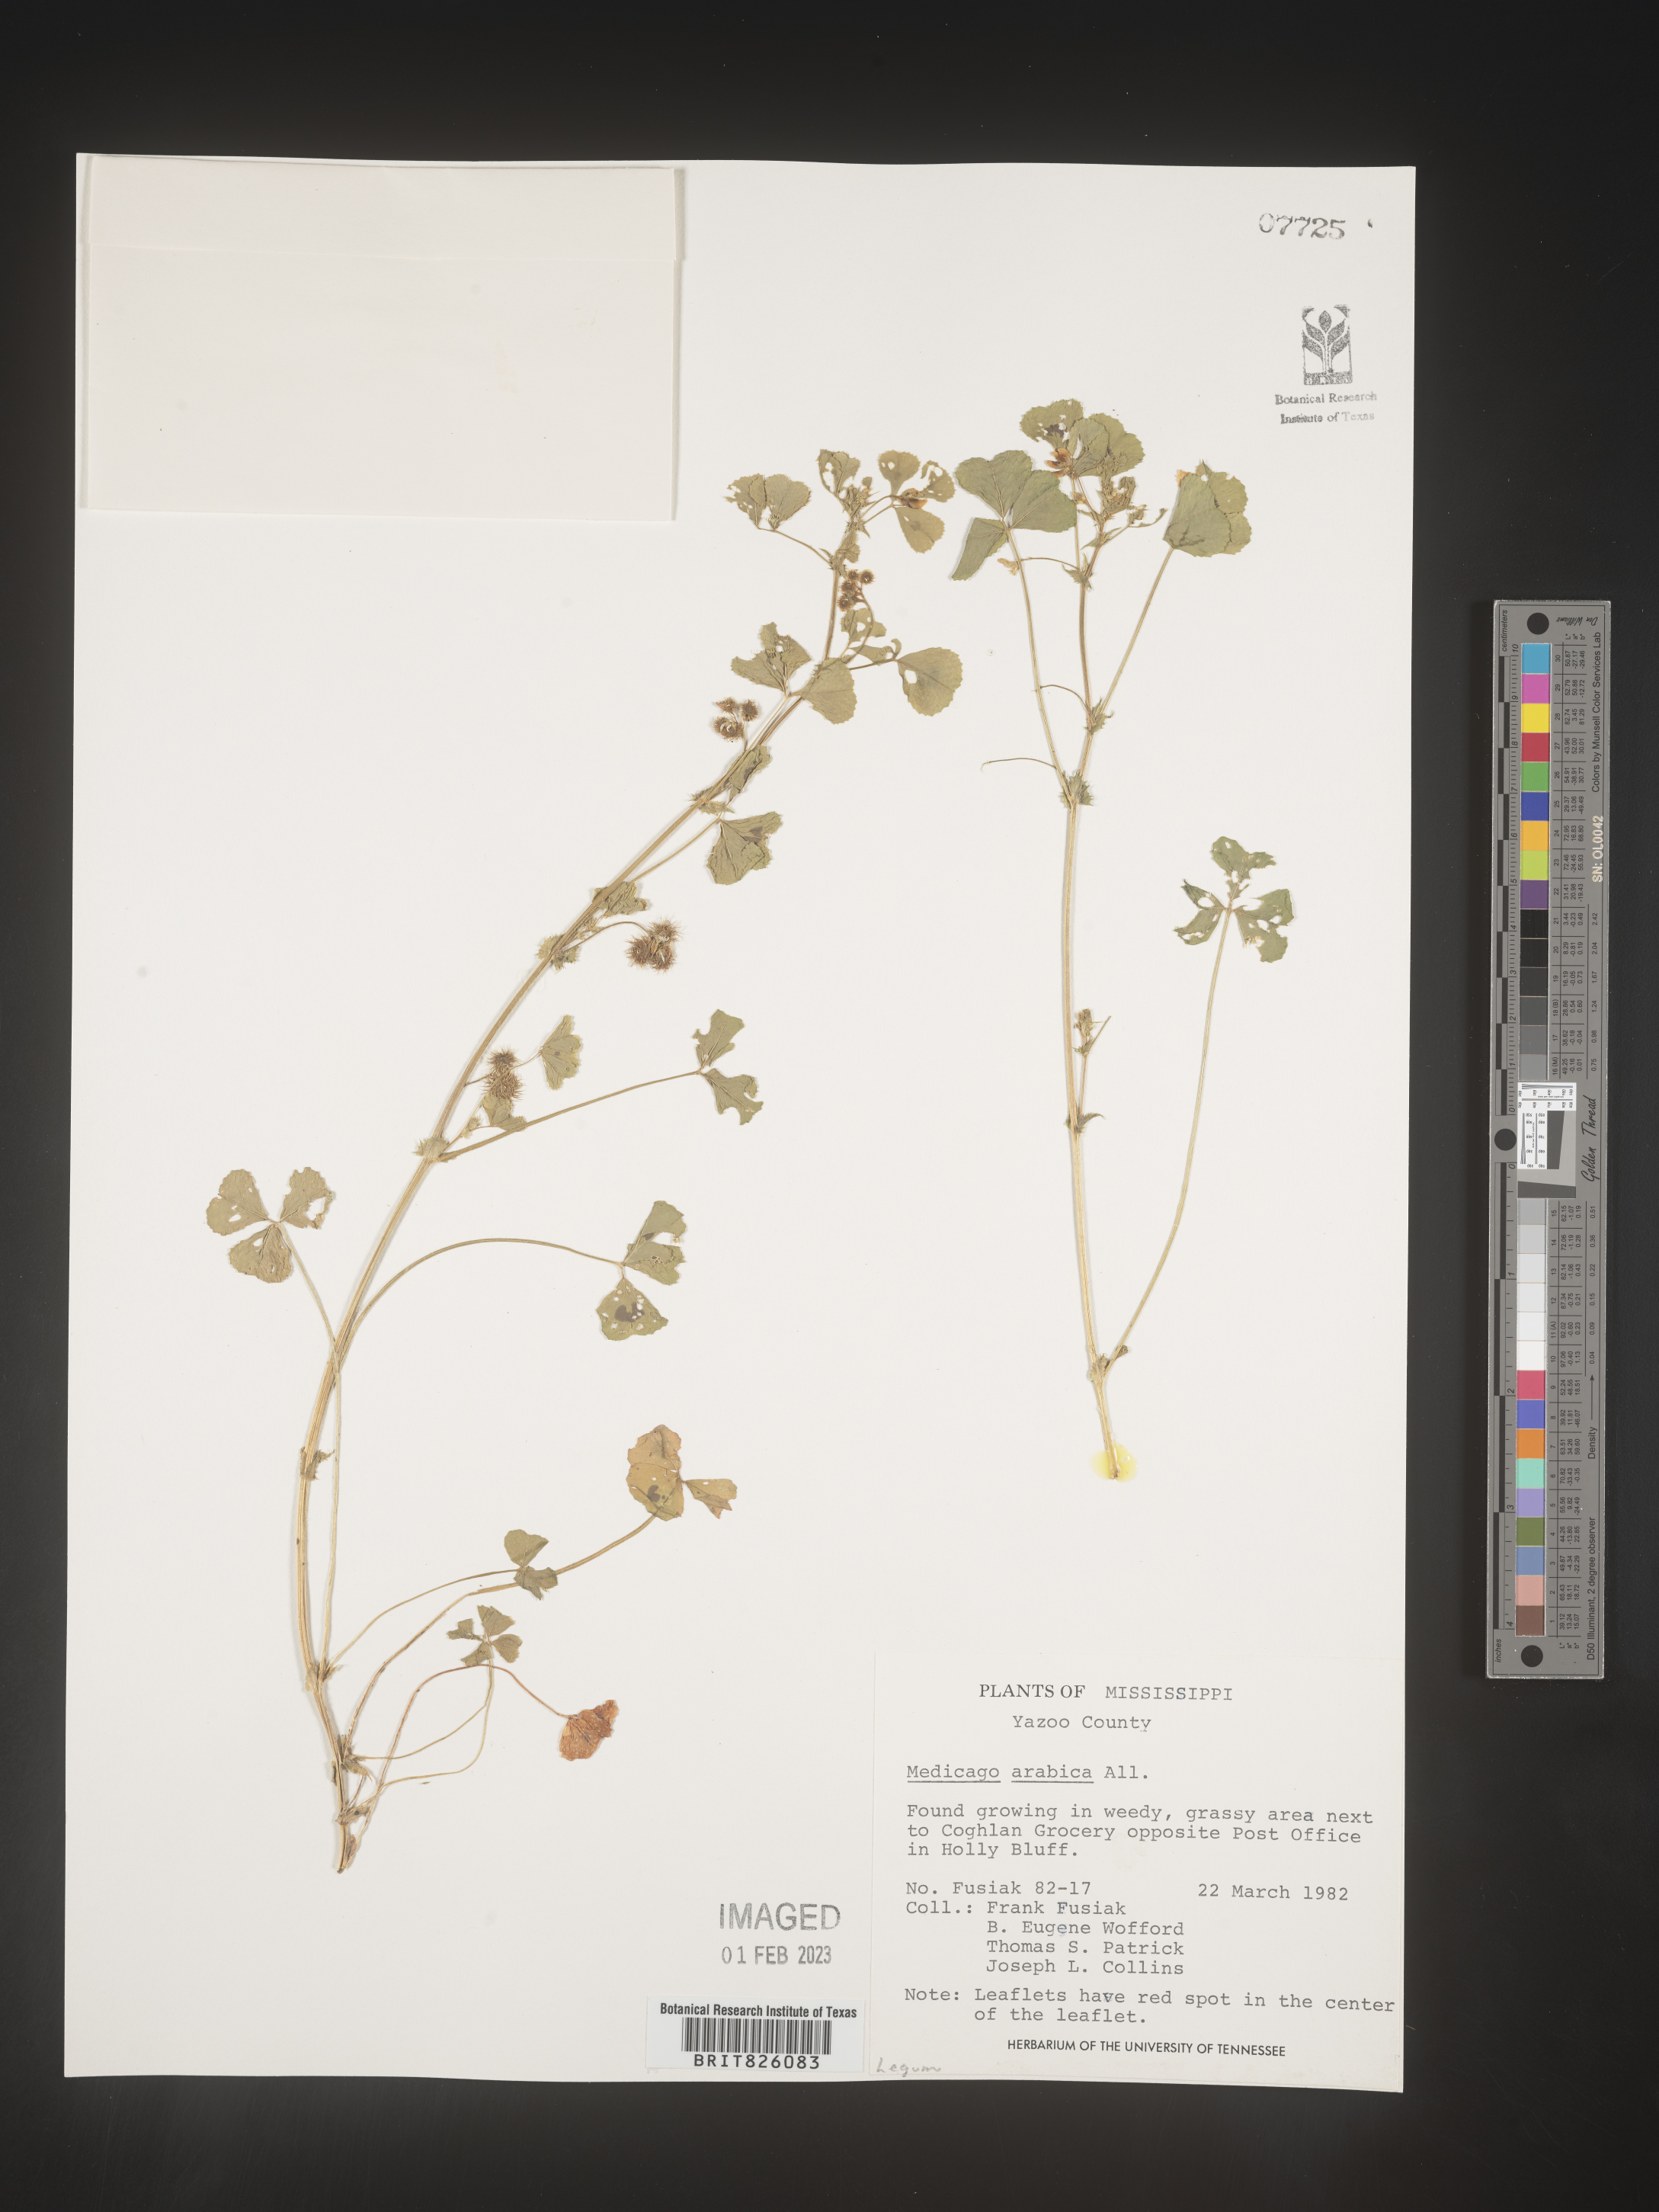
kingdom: Plantae
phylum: Tracheophyta
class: Magnoliopsida
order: Fabales
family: Fabaceae
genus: Medicago
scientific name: Medicago arabica
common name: Spotted medick
